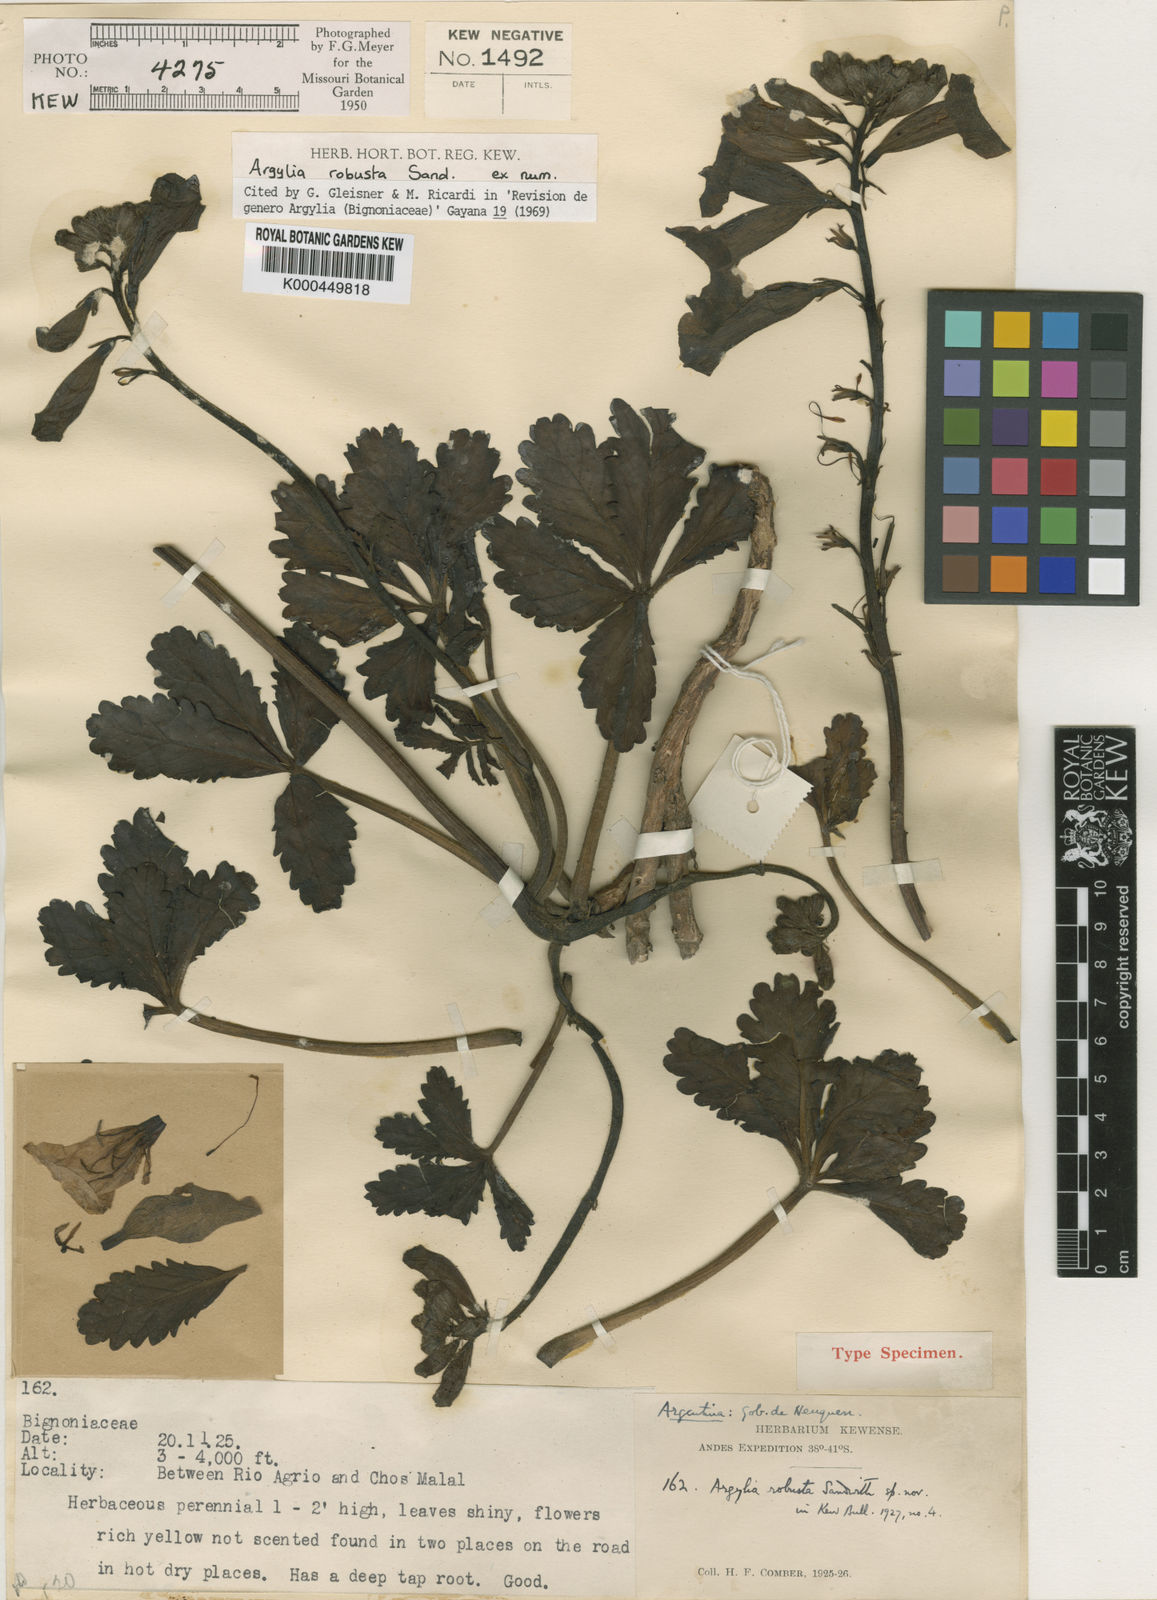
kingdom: Plantae
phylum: Tracheophyta
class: Magnoliopsida
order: Lamiales
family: Bignoniaceae
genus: Argylia
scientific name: Argylia robusta
